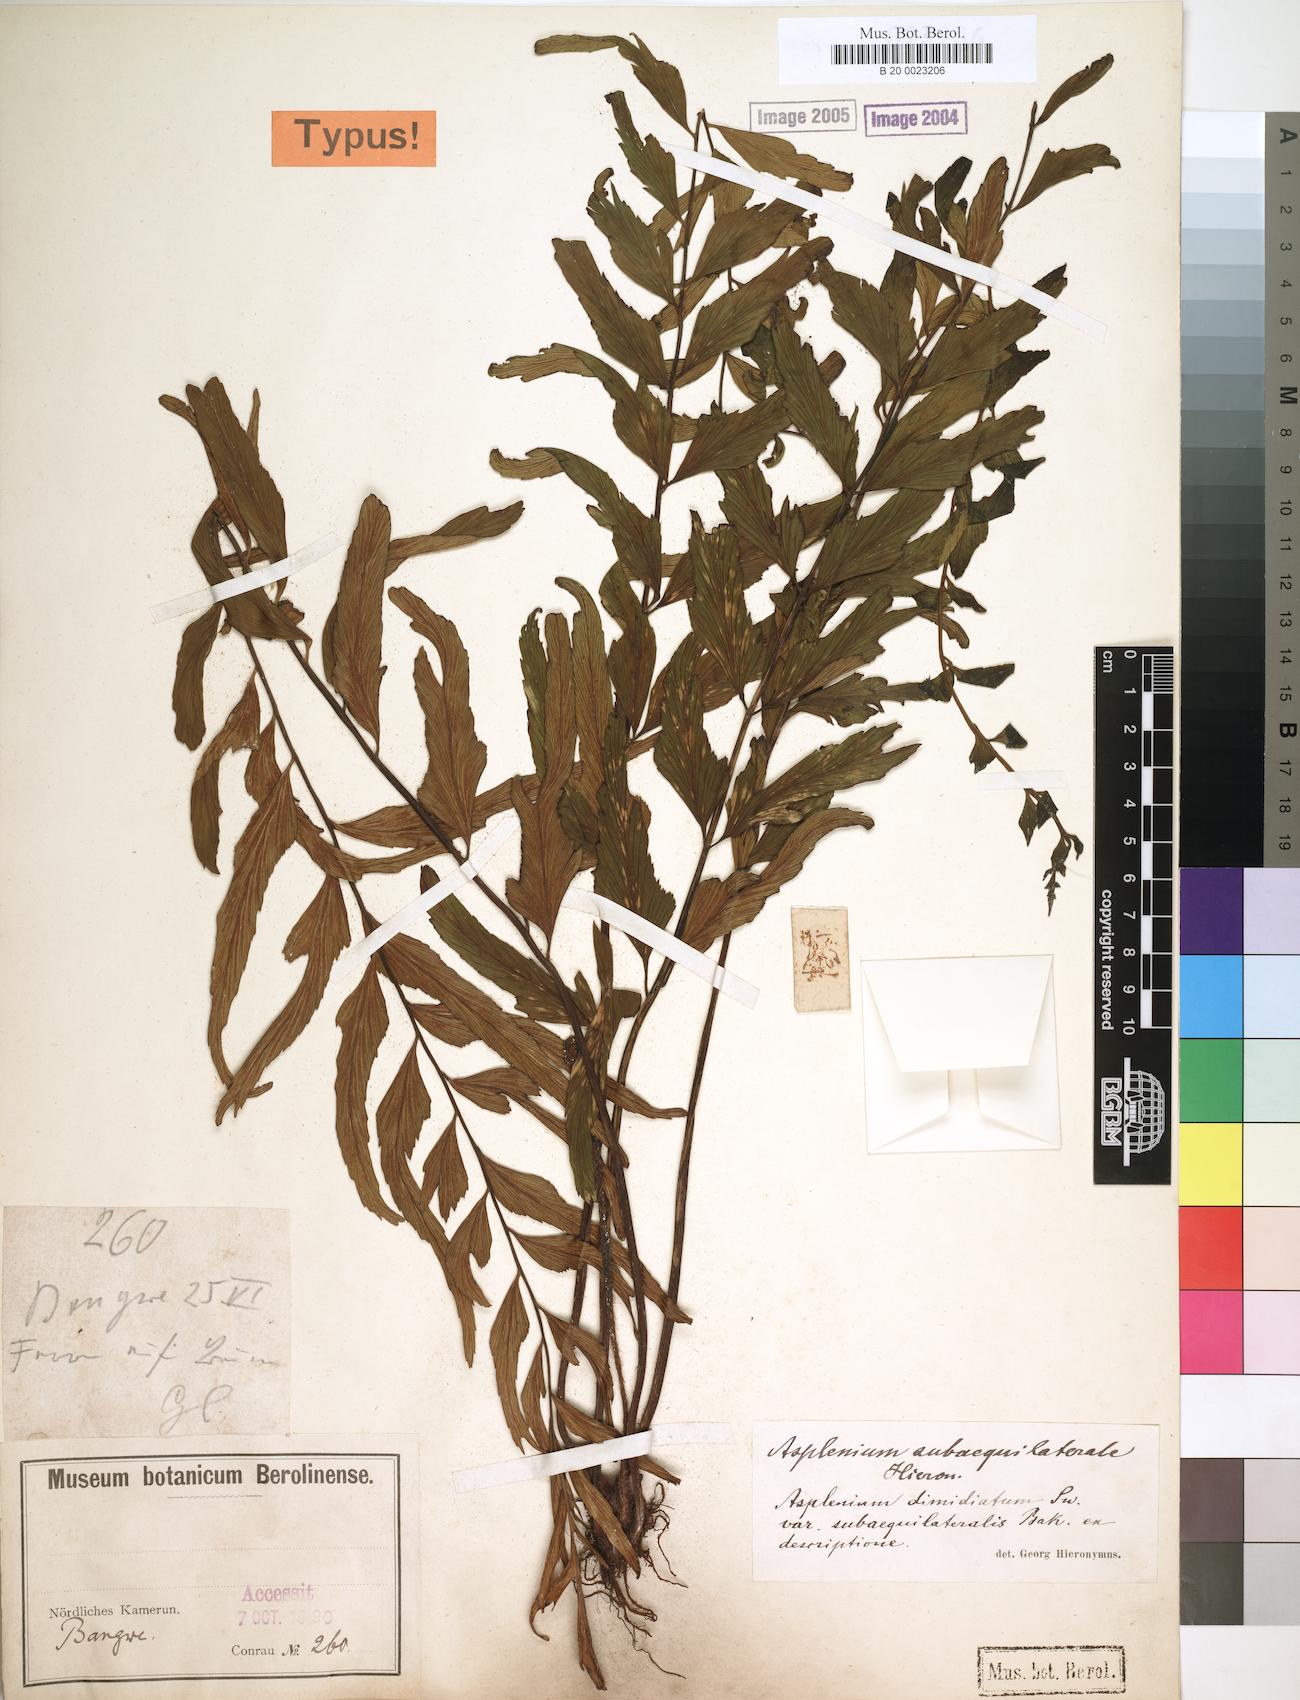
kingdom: Plantae
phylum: Tracheophyta
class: Polypodiopsida
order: Polypodiales
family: Aspleniaceae
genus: Asplenium
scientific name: Asplenium subaequilaterale
